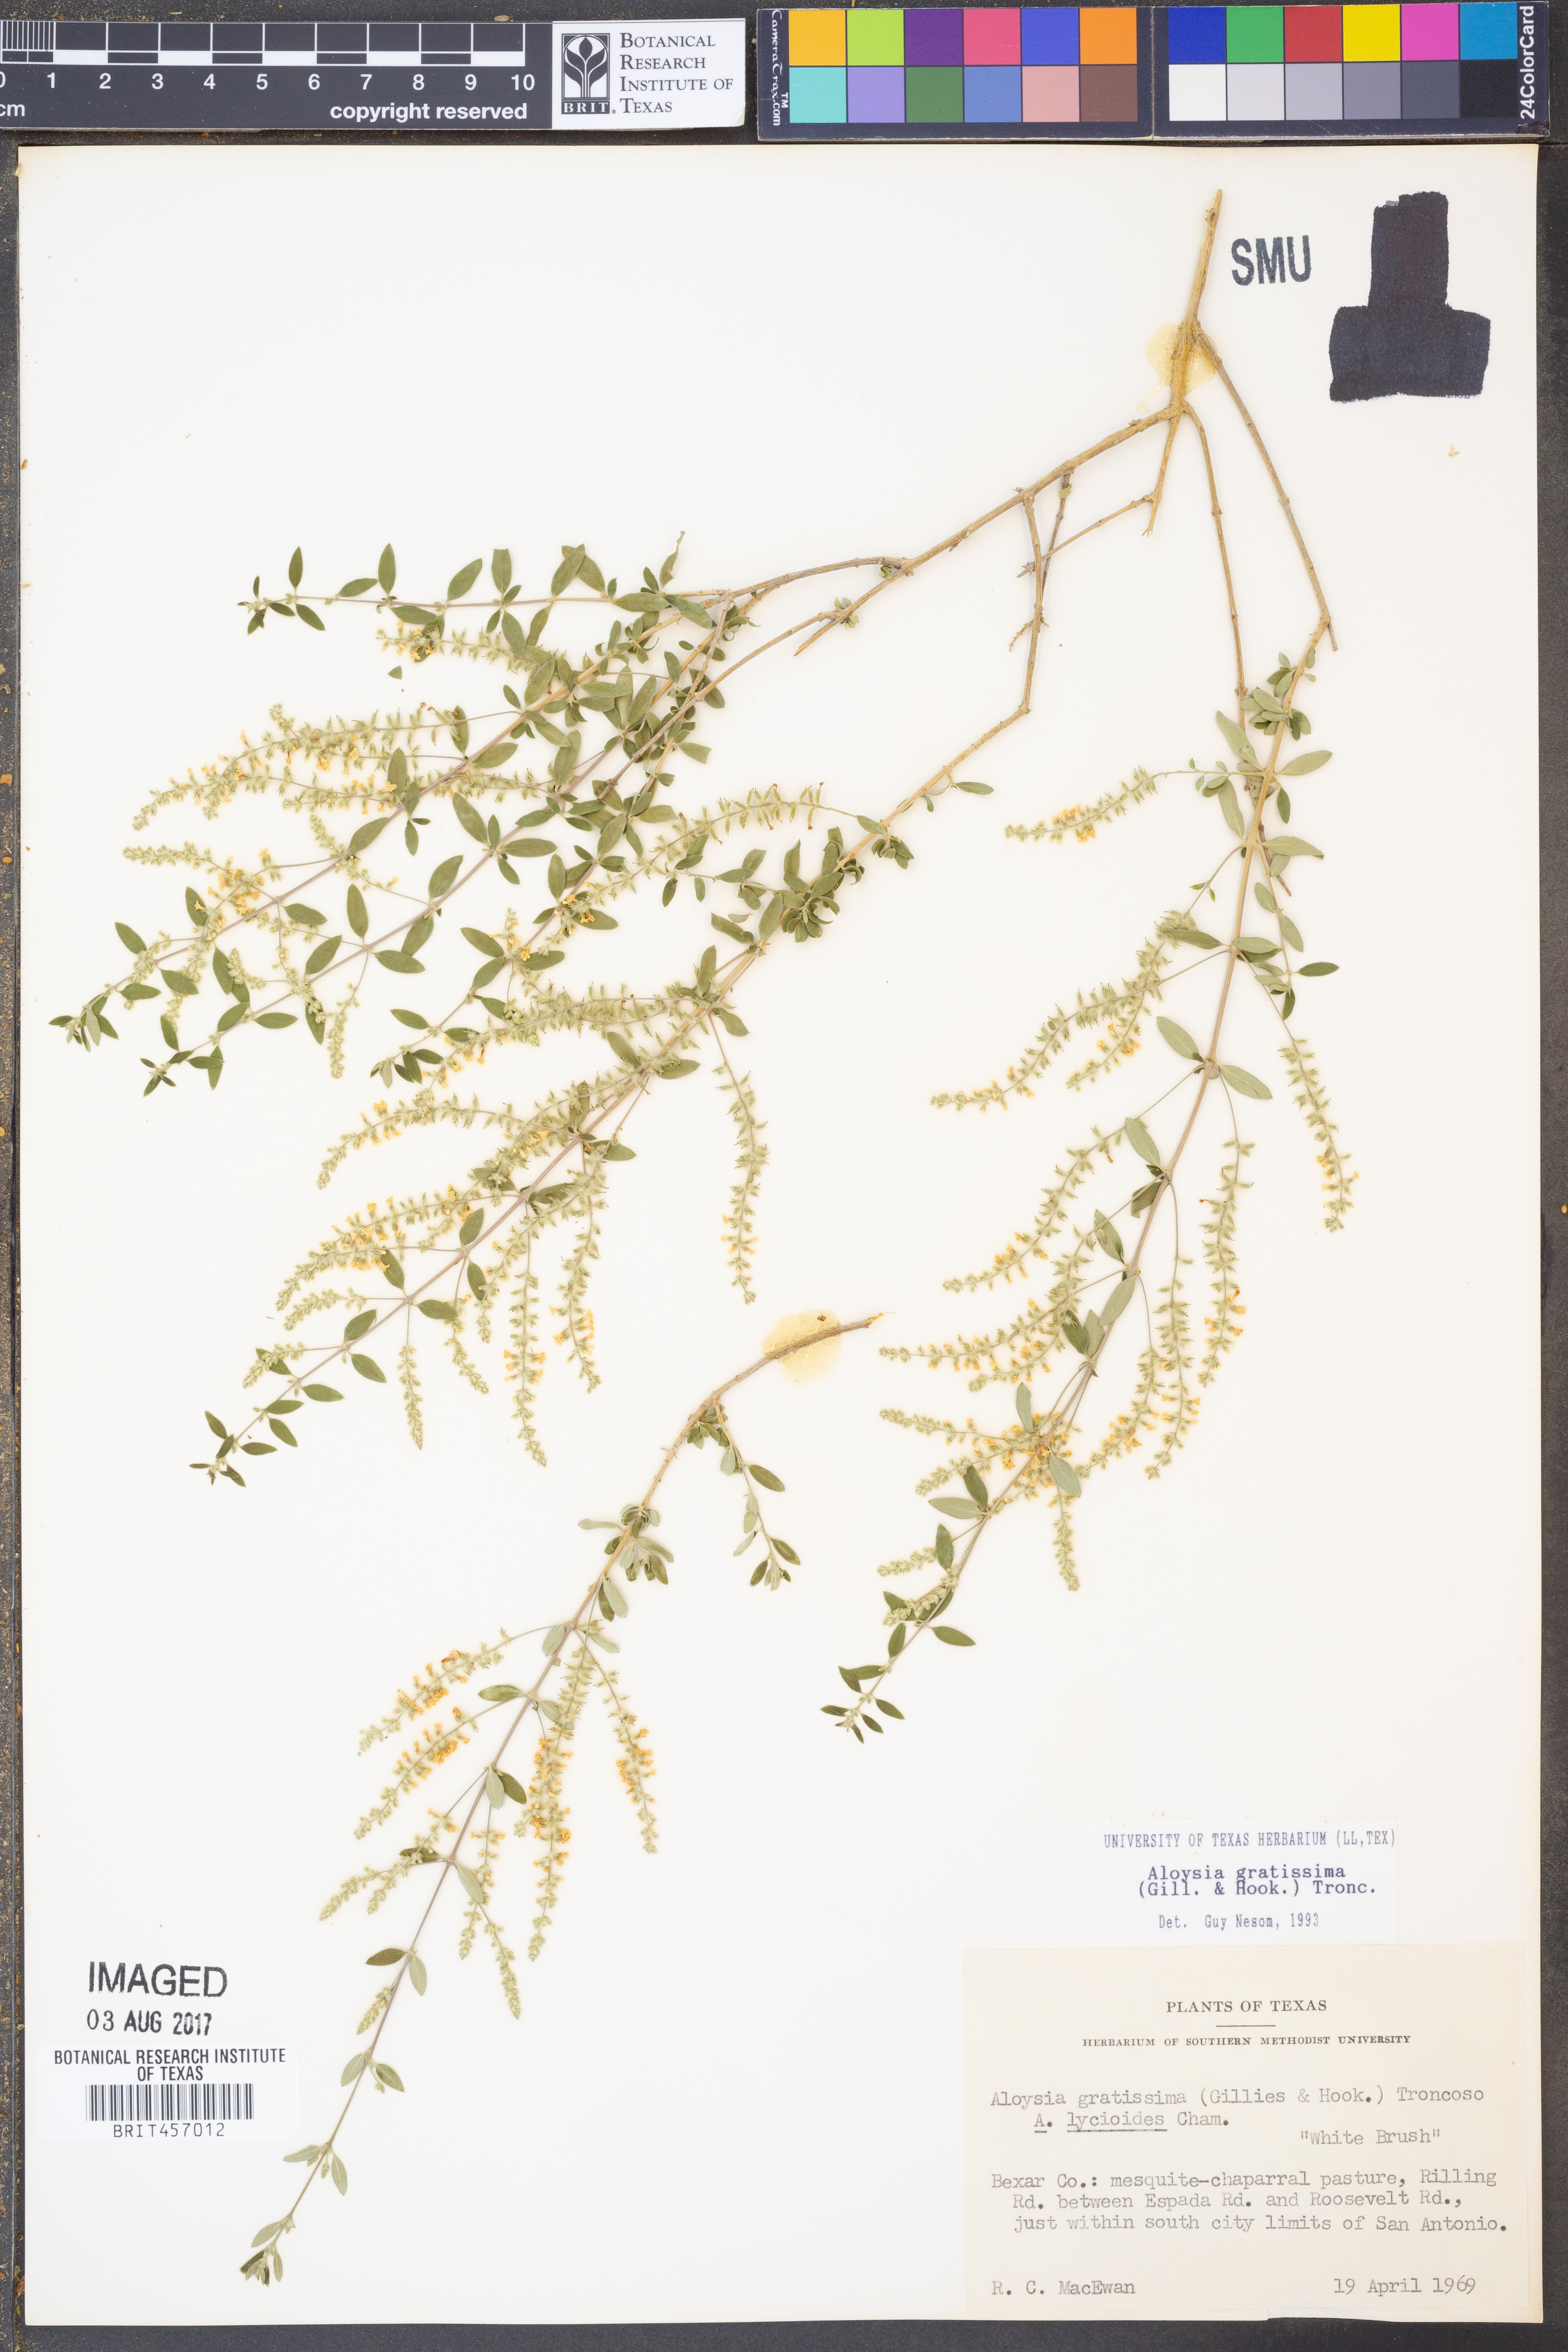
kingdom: Plantae
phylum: Tracheophyta
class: Magnoliopsida
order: Lamiales
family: Verbenaceae
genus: Aloysia
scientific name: Aloysia gratissima
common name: Common bee-brush
